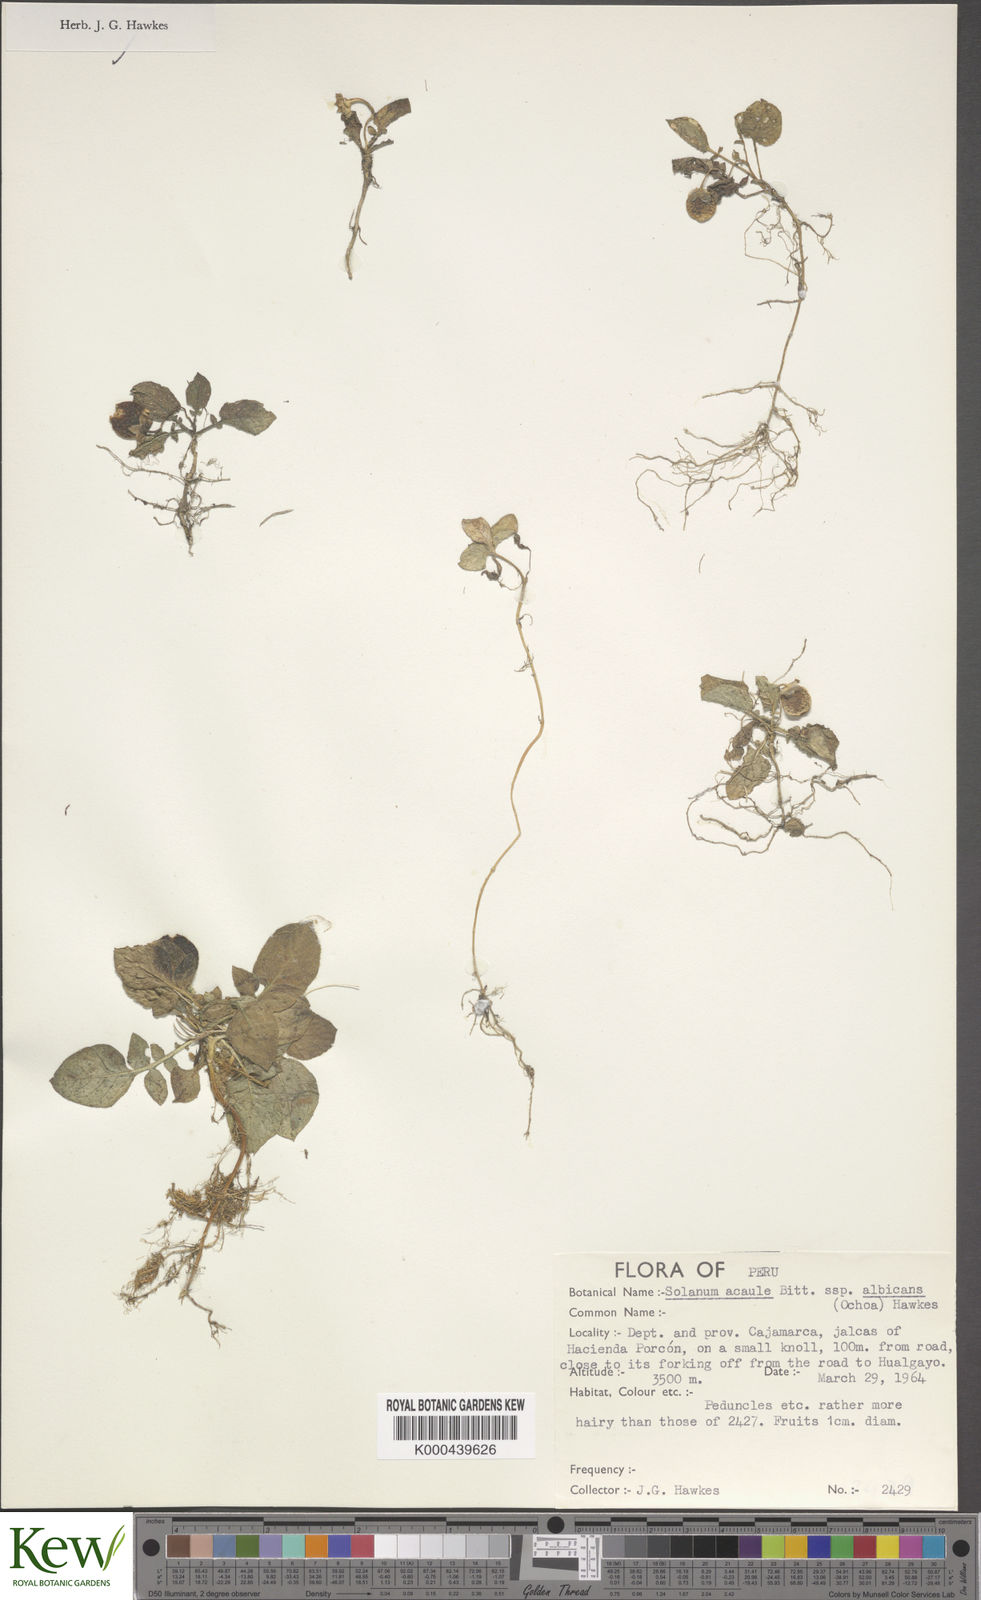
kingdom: Plantae
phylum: Tracheophyta
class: Magnoliopsida
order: Solanales
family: Solanaceae
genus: Solanum
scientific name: Solanum acaule
